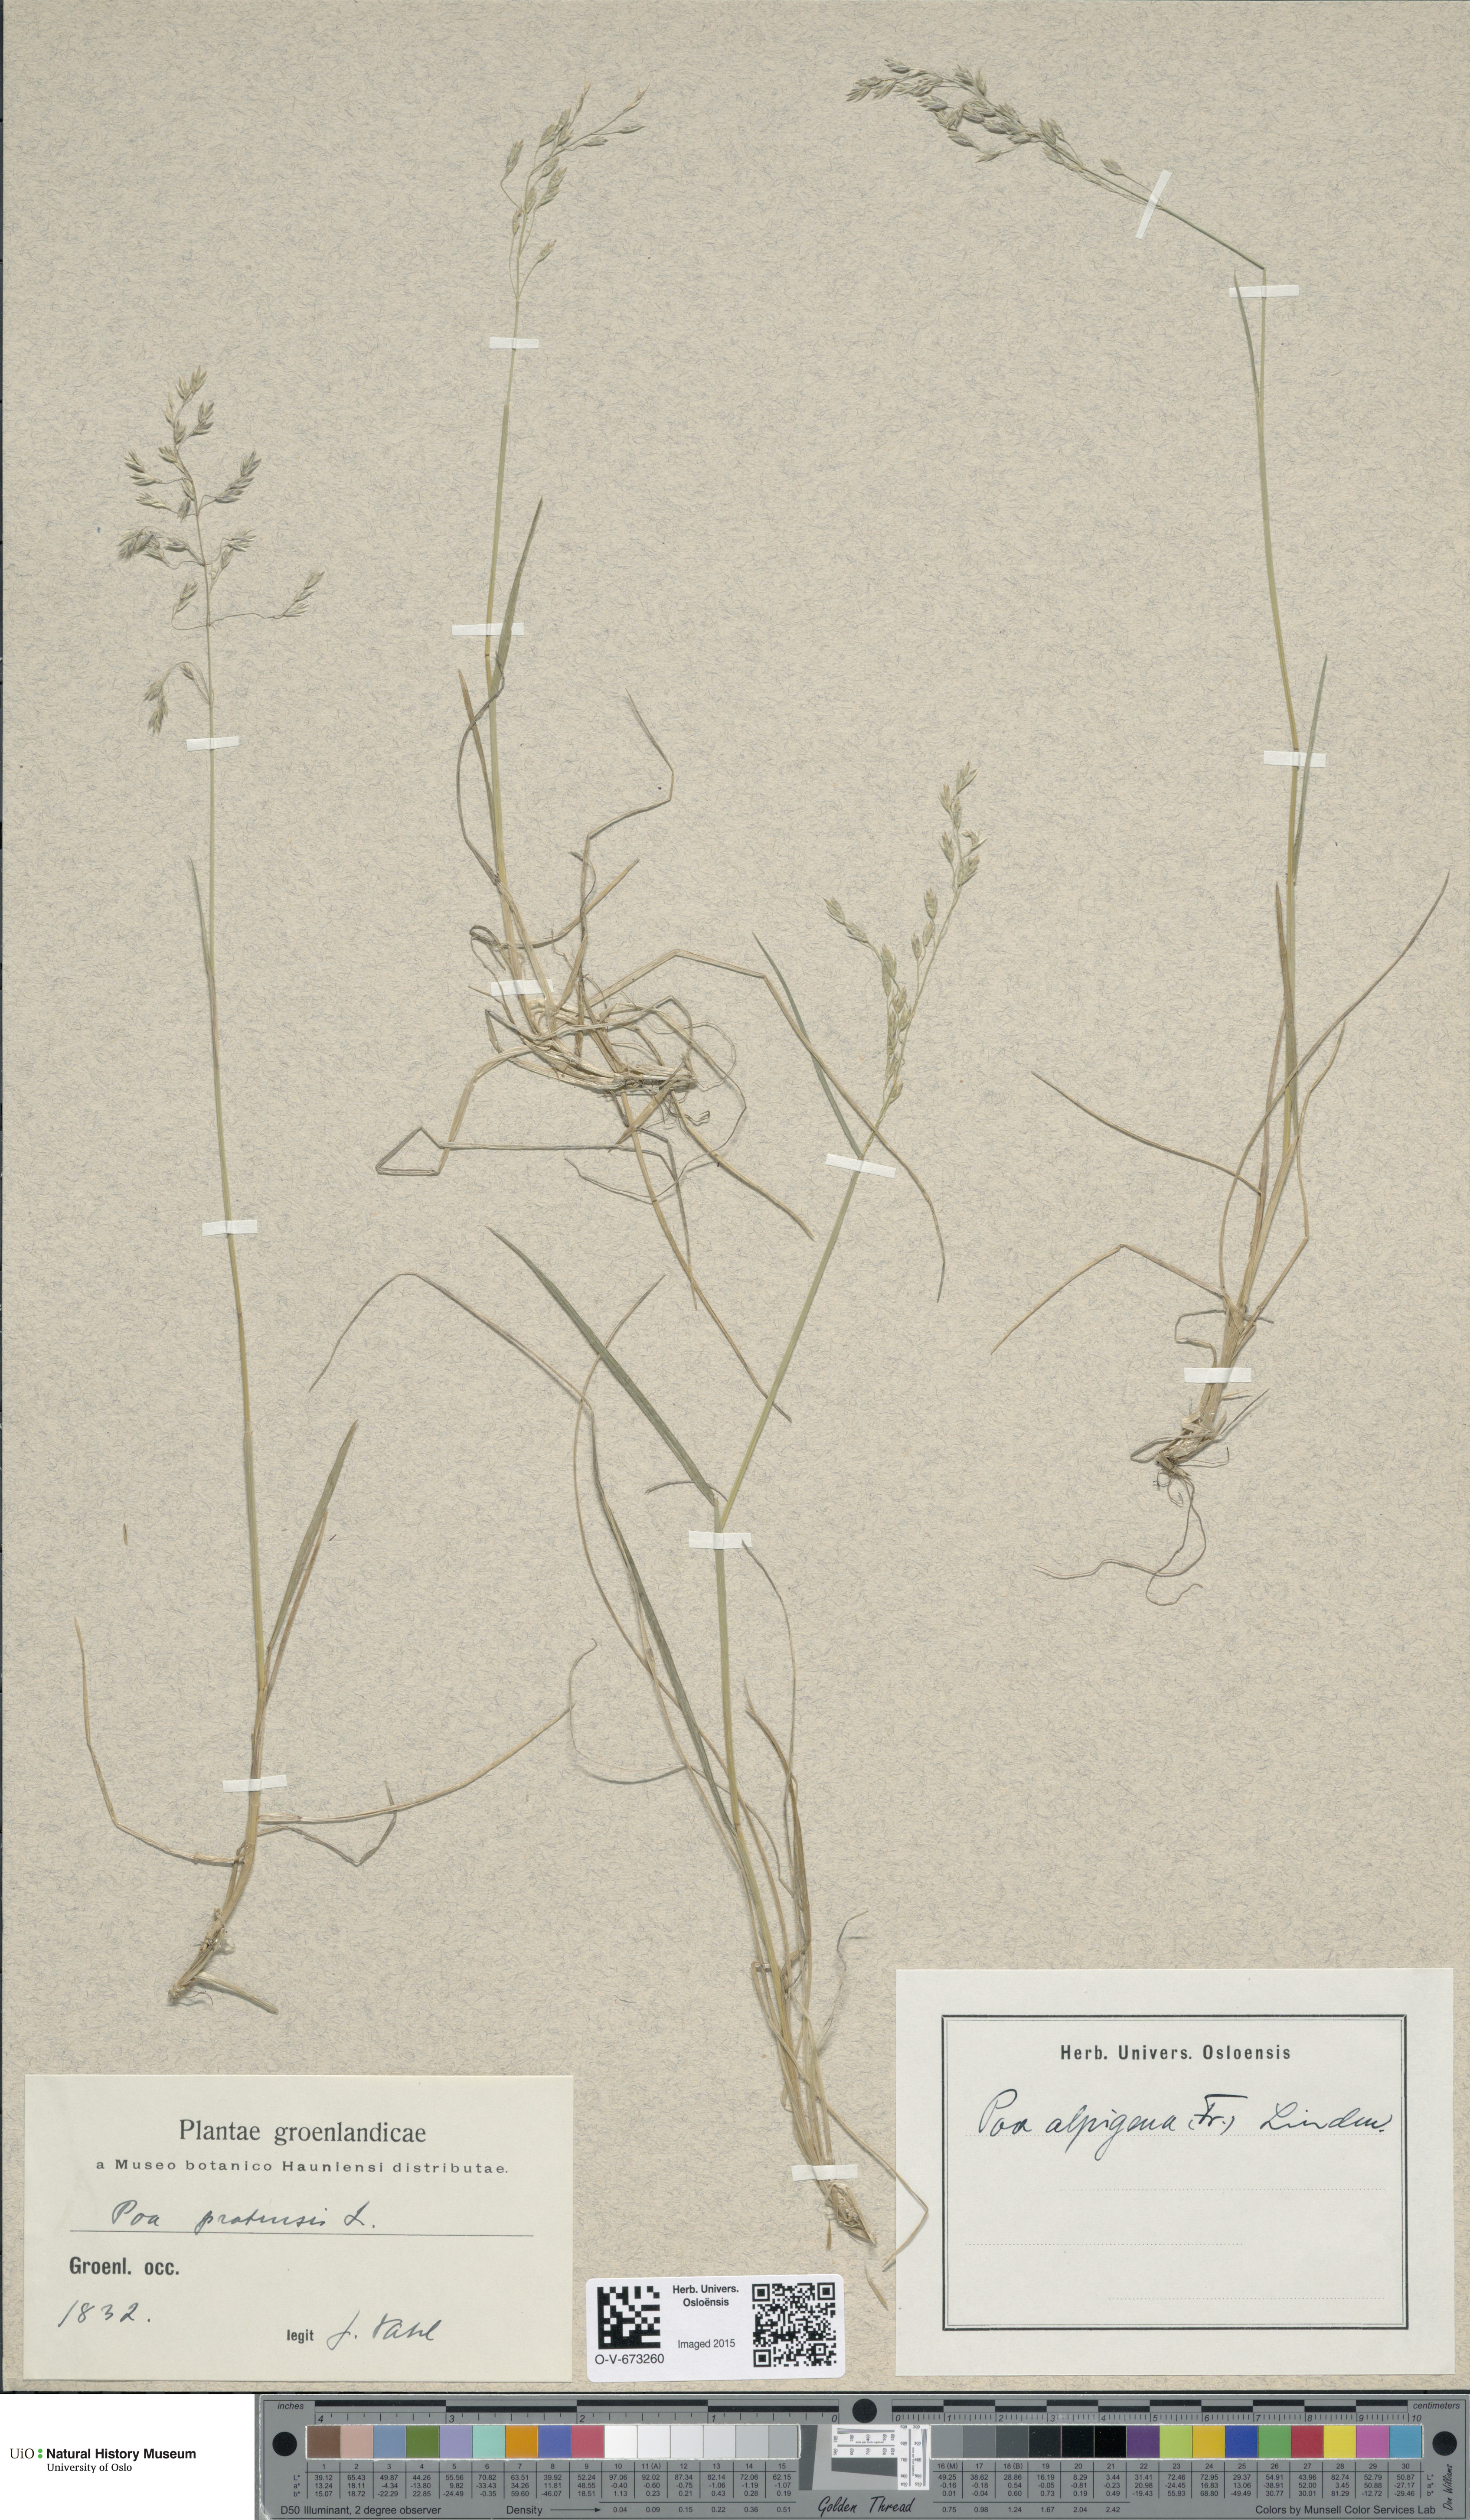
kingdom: Plantae
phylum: Tracheophyta
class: Liliopsida
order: Poales
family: Poaceae
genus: Poa
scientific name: Poa alpigena
